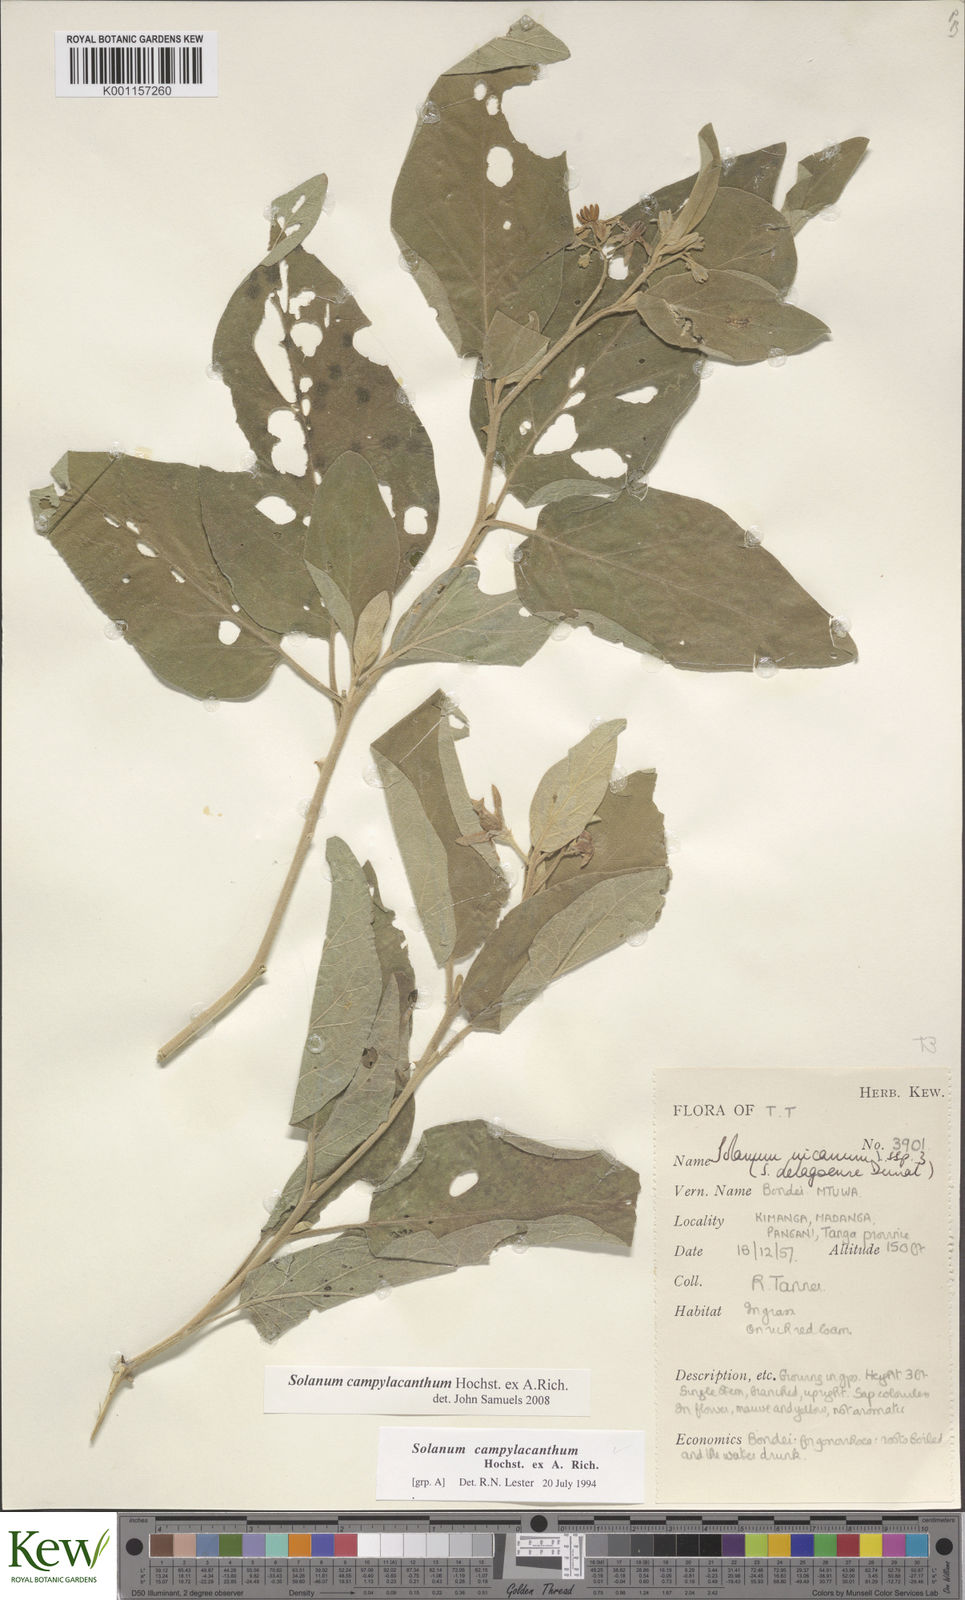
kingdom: Plantae
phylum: Tracheophyta
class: Magnoliopsida
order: Solanales
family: Solanaceae
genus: Solanum
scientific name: Solanum campylacanthum
